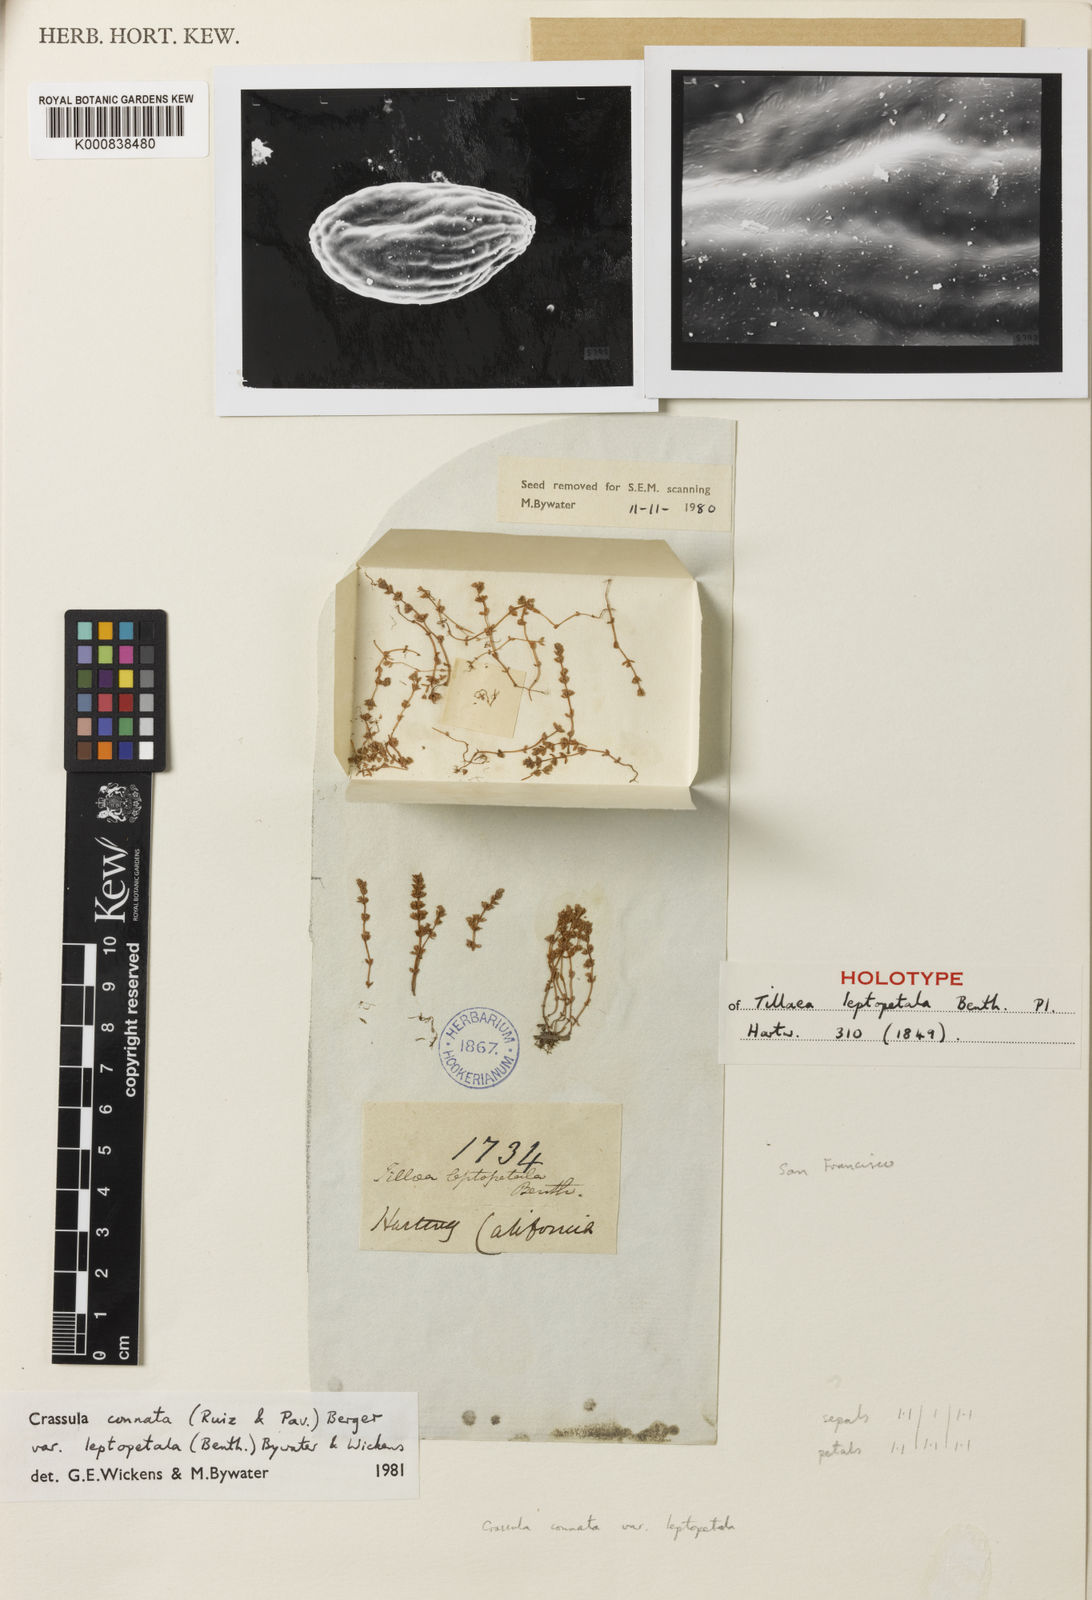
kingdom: Plantae
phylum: Tracheophyta
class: Magnoliopsida
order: Saxifragales
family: Crassulaceae
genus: Crassula
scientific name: Crassula connata
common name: Erect pygmyweed
